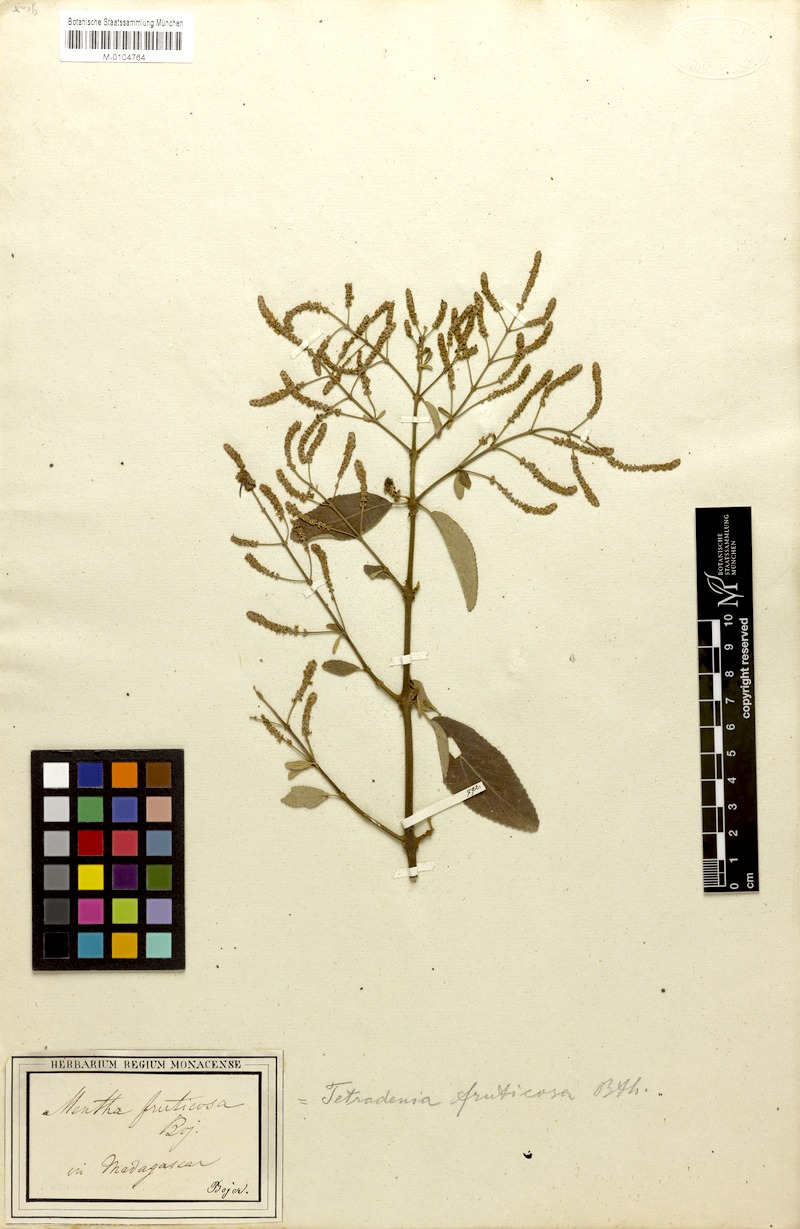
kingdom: Plantae
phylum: Tracheophyta
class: Magnoliopsida
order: Lamiales
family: Lamiaceae
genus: Tetradenia
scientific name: Tetradenia fruticosa
